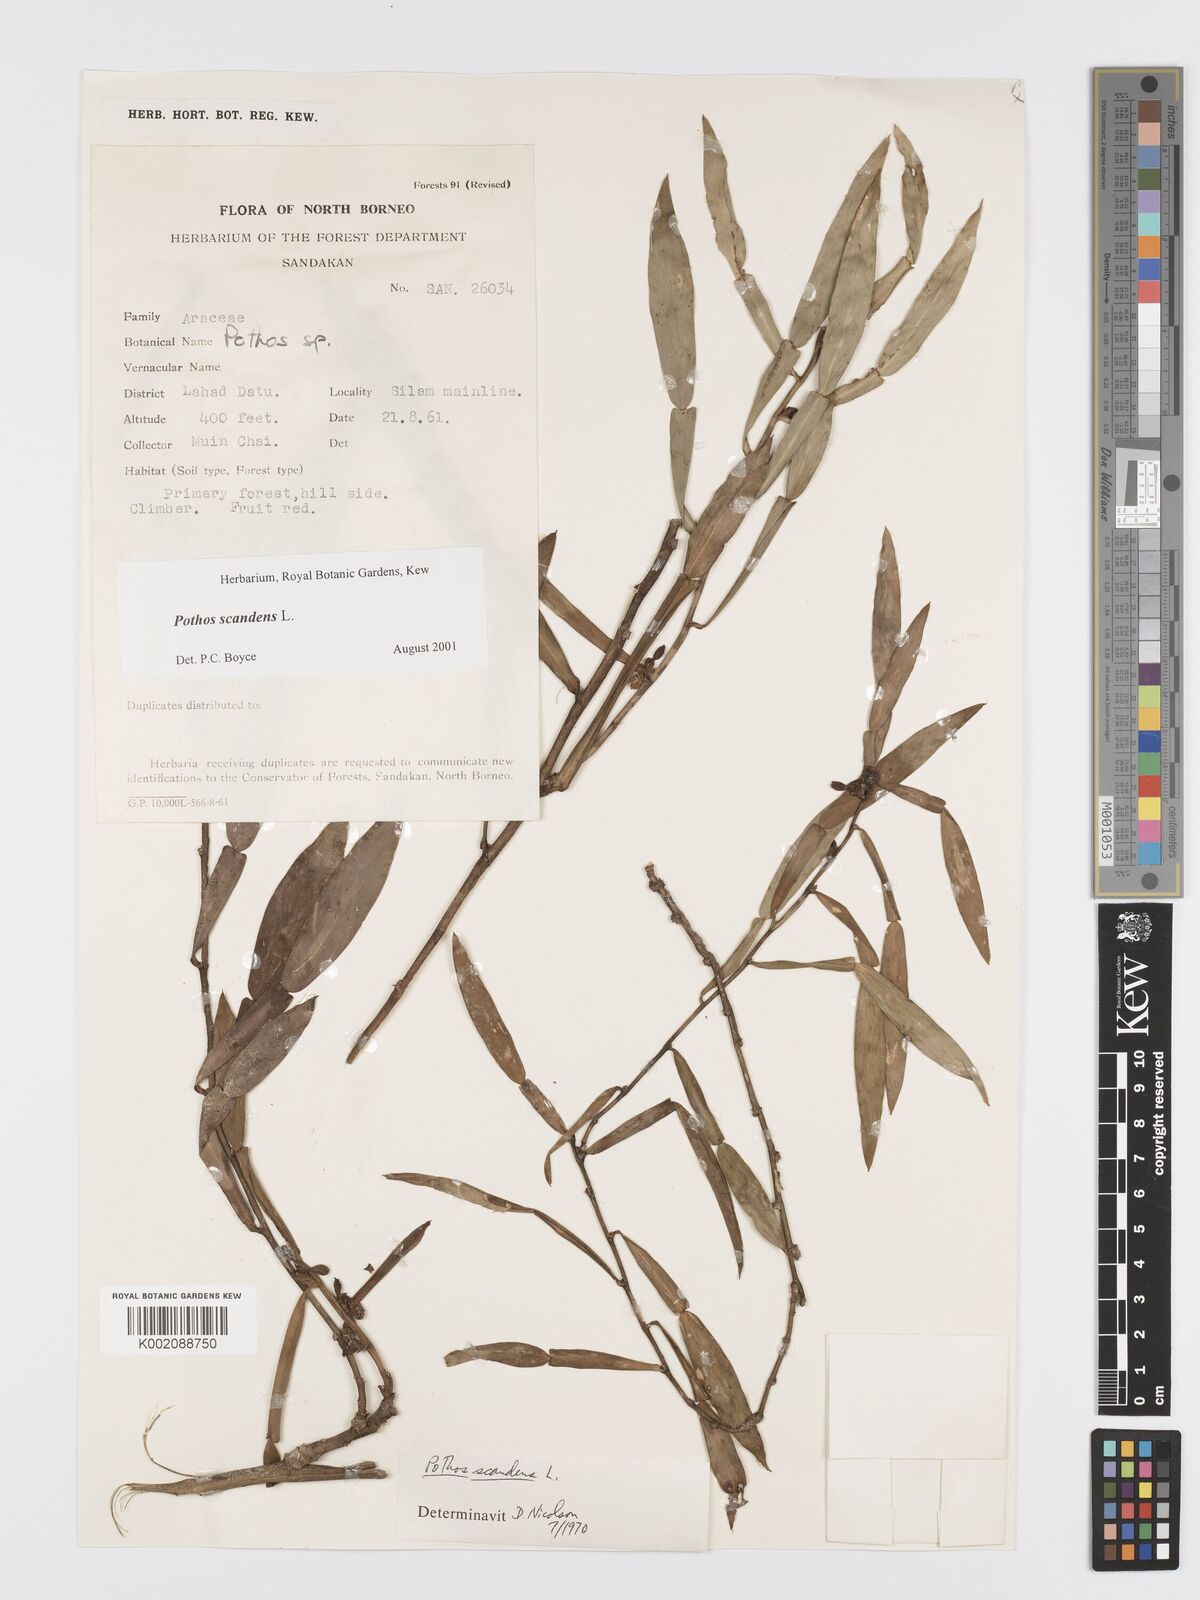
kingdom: Plantae
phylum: Tracheophyta
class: Liliopsida
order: Alismatales
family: Araceae
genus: Pothos
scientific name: Pothos scandens
